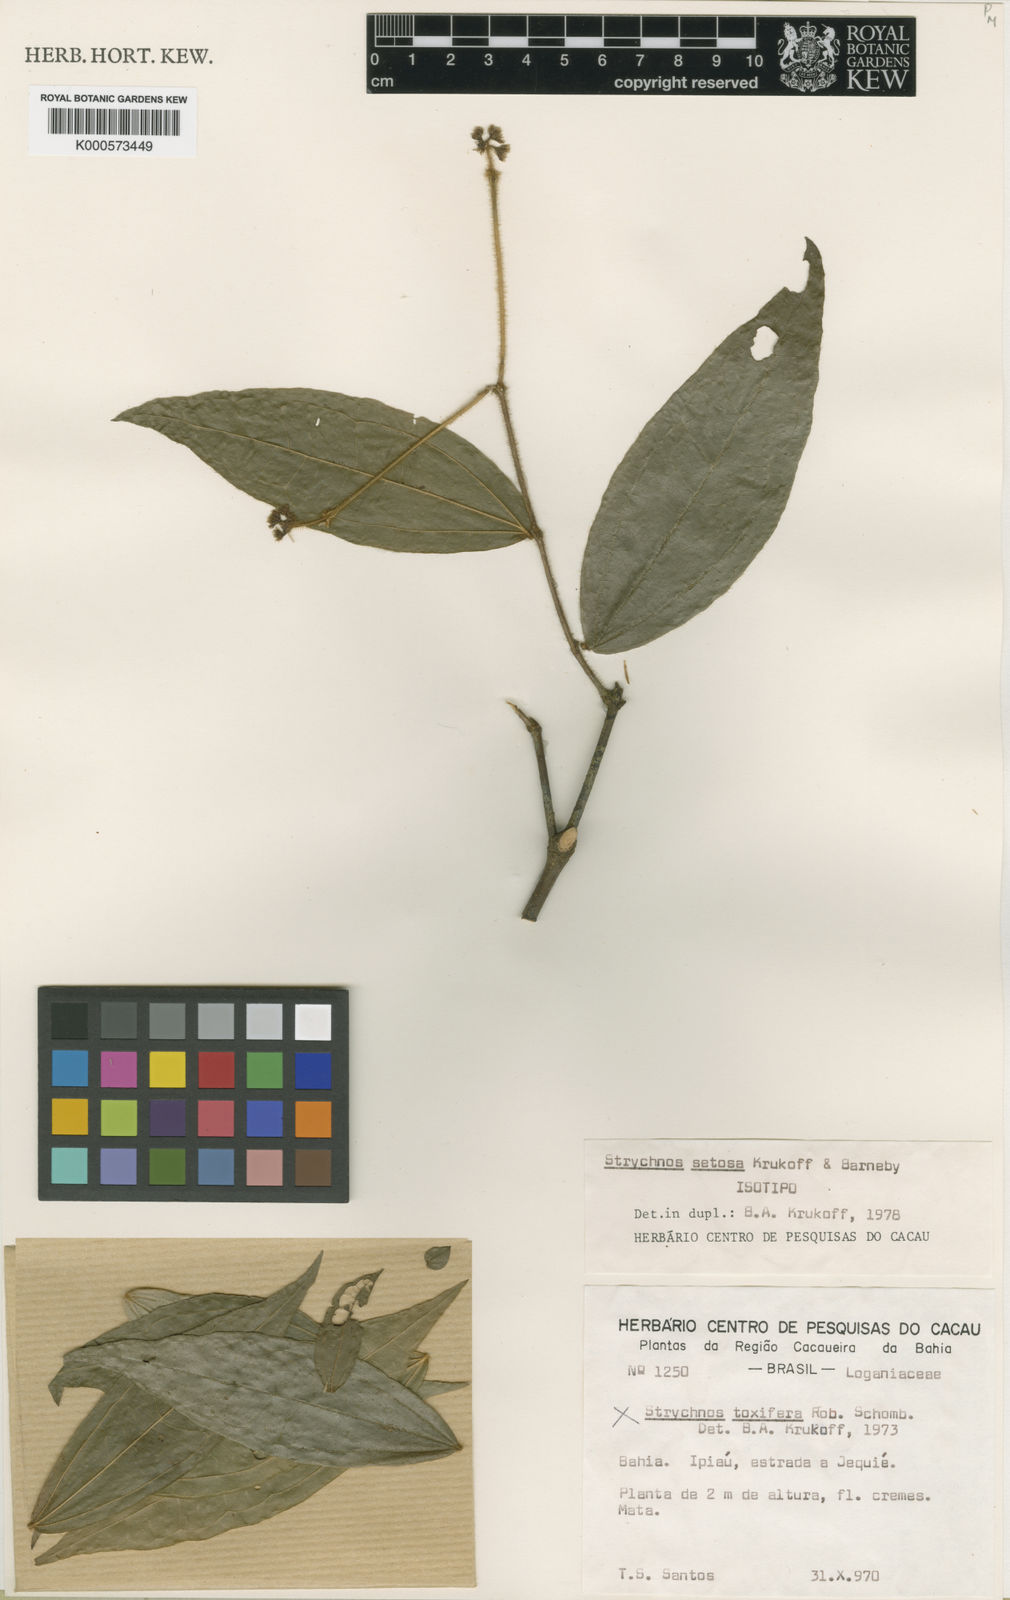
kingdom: Plantae
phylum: Tracheophyta
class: Magnoliopsida
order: Gentianales
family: Loganiaceae
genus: Strychnos
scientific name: Strychnos setosa
